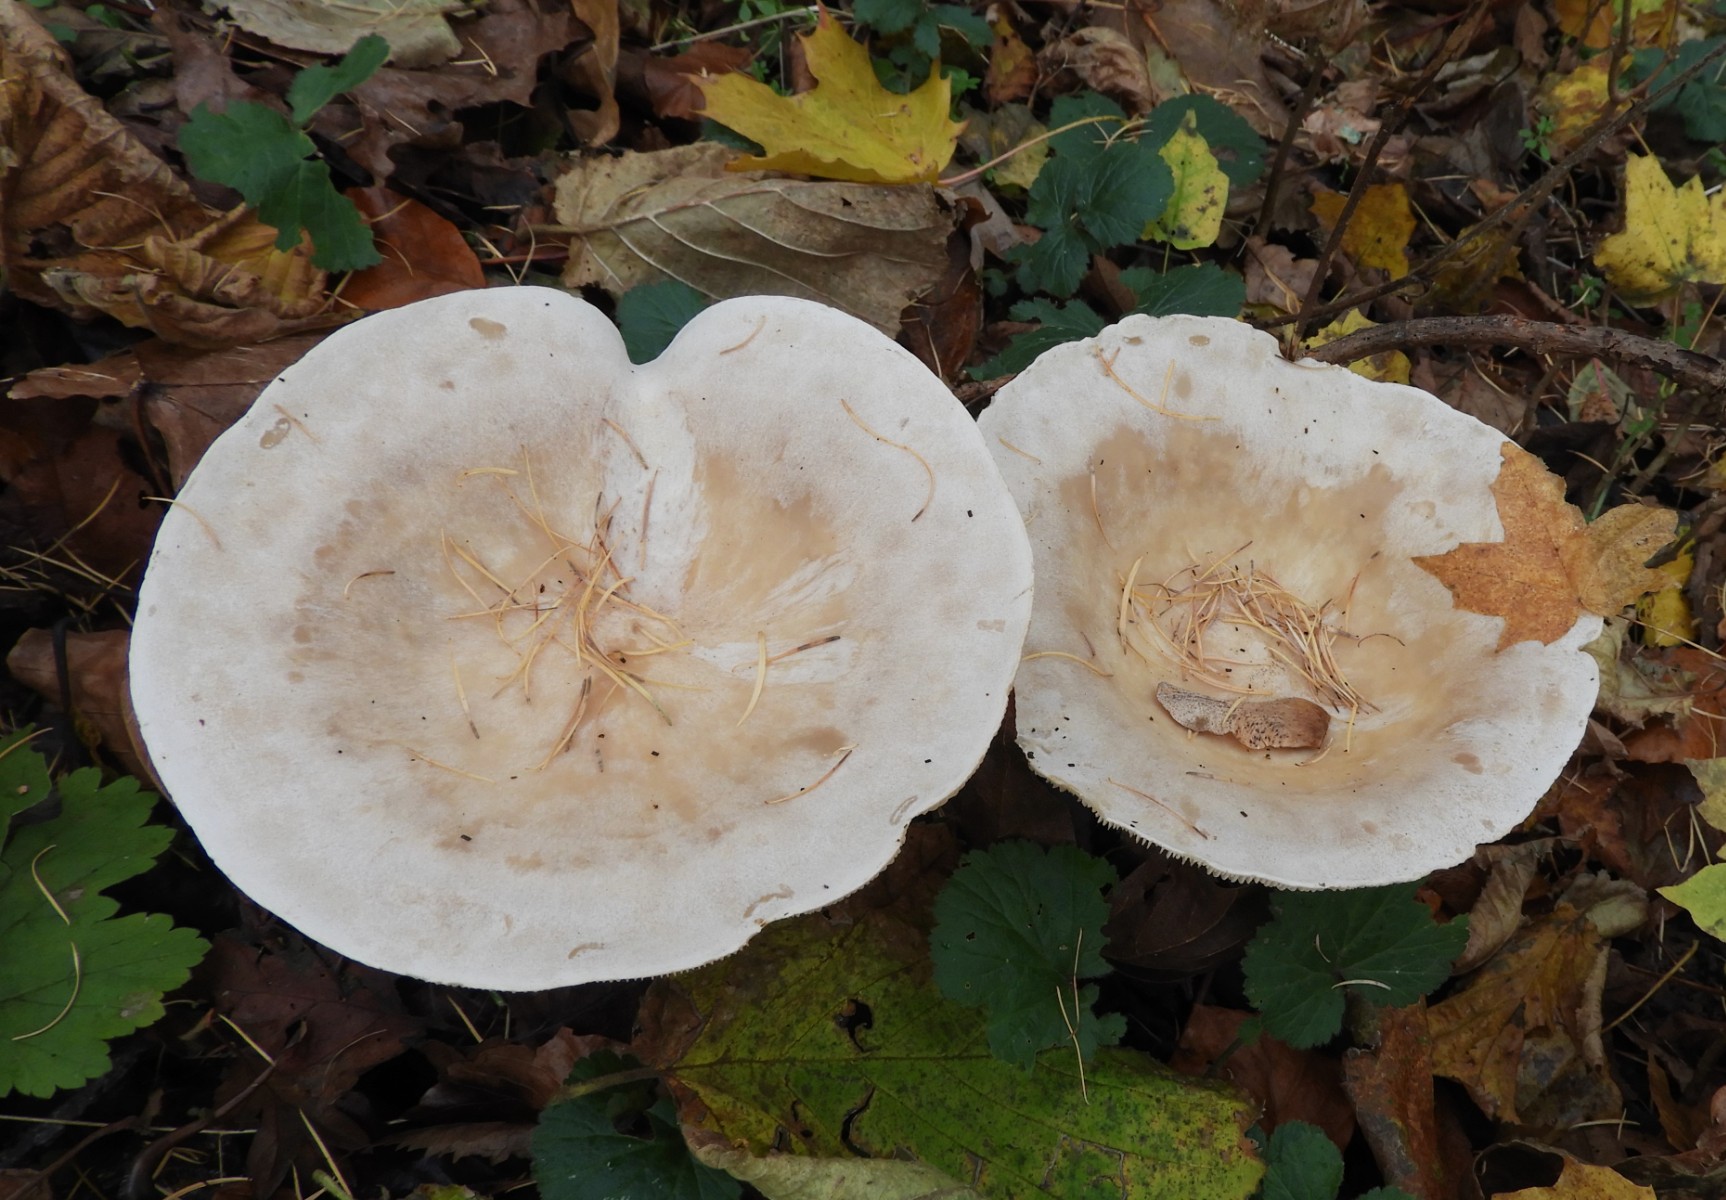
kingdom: Fungi
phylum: Basidiomycota
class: Agaricomycetes
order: Agaricales
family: Tricholomataceae
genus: Infundibulicybe
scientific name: Infundibulicybe geotropa
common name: stor tragthat
